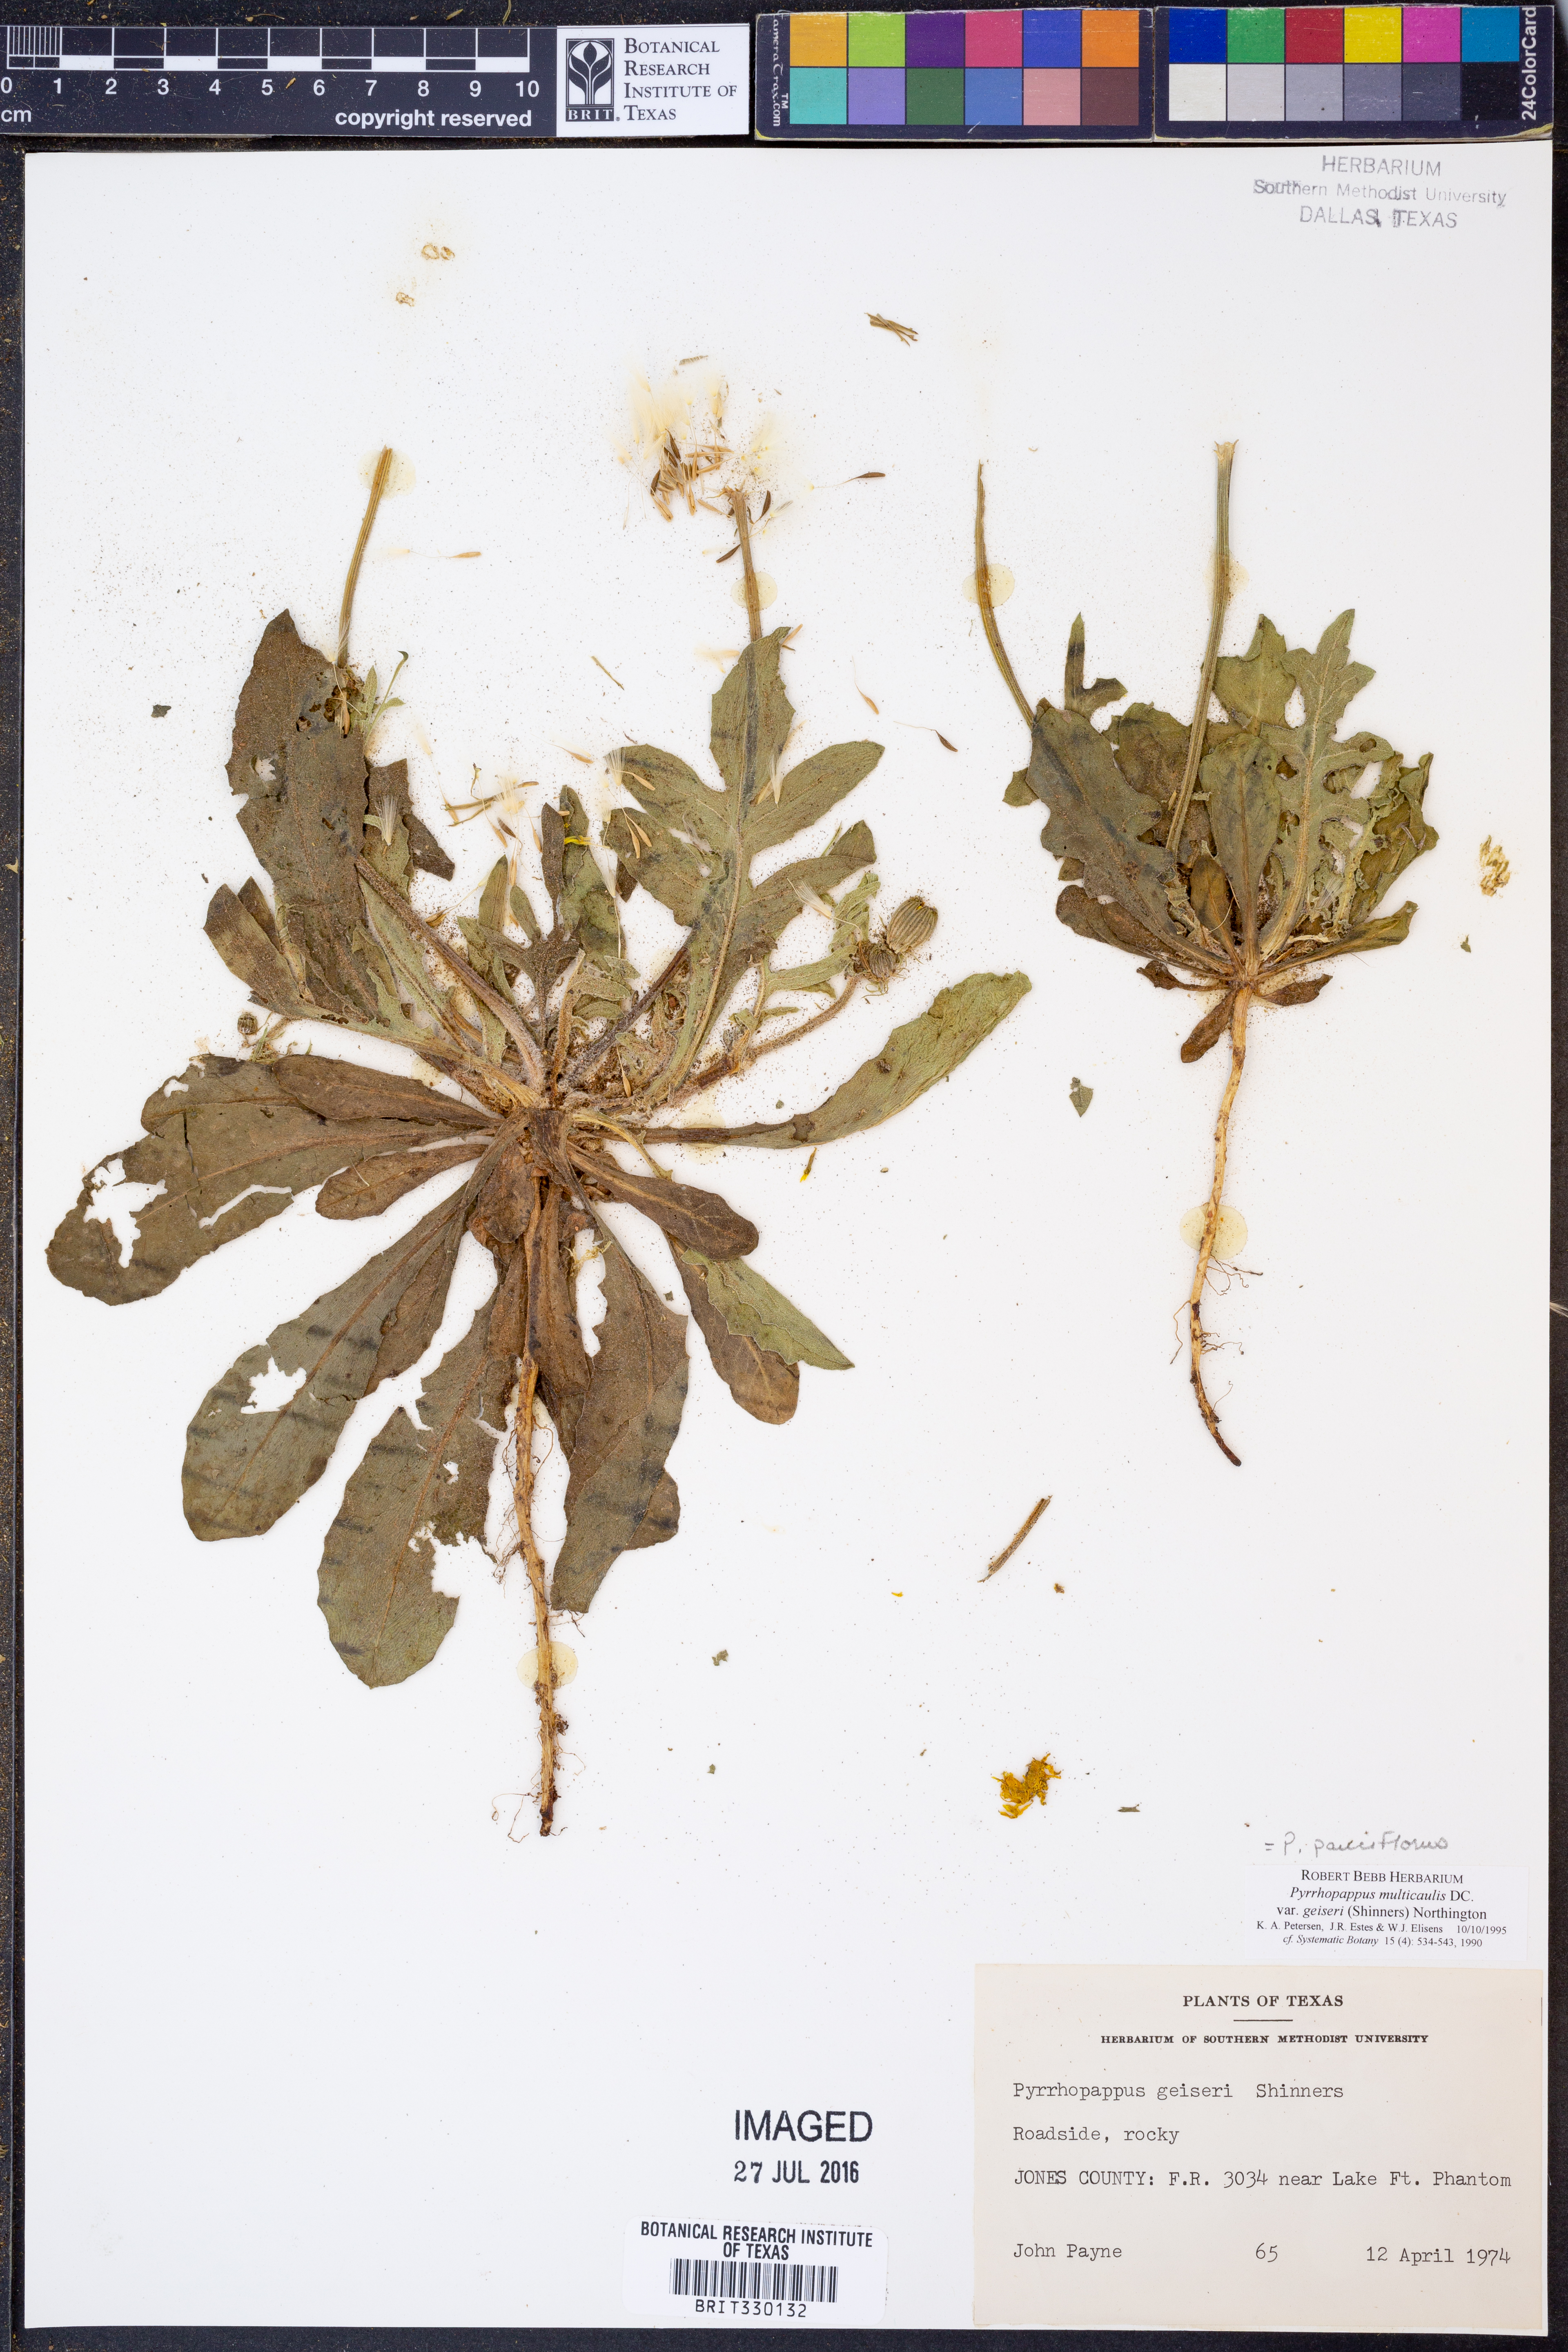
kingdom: Plantae
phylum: Tracheophyta
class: Magnoliopsida
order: Asterales
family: Asteraceae
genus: Pyrrhopappus
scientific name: Pyrrhopappus pauciflorus
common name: Texas false dandelion
